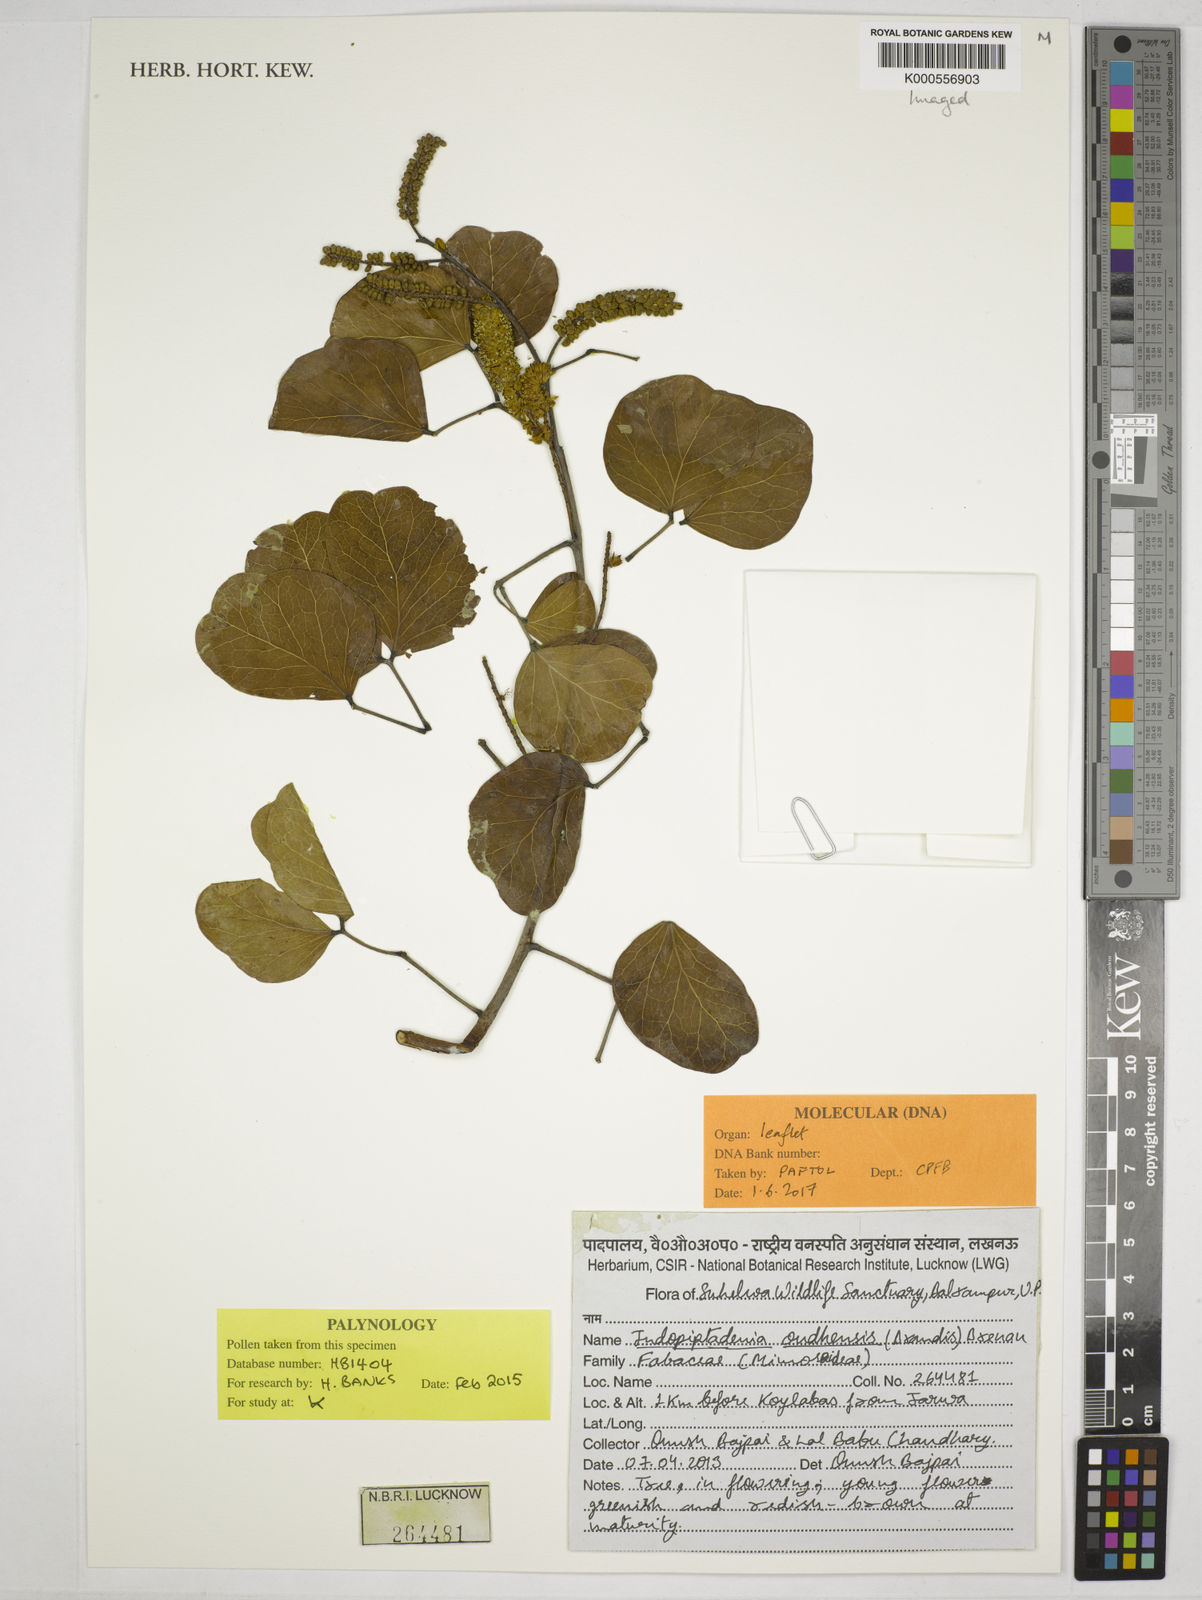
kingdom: Plantae
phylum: Tracheophyta
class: Magnoliopsida
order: Fabales
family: Fabaceae
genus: Indopiptadenia
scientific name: Indopiptadenia oudhensis
